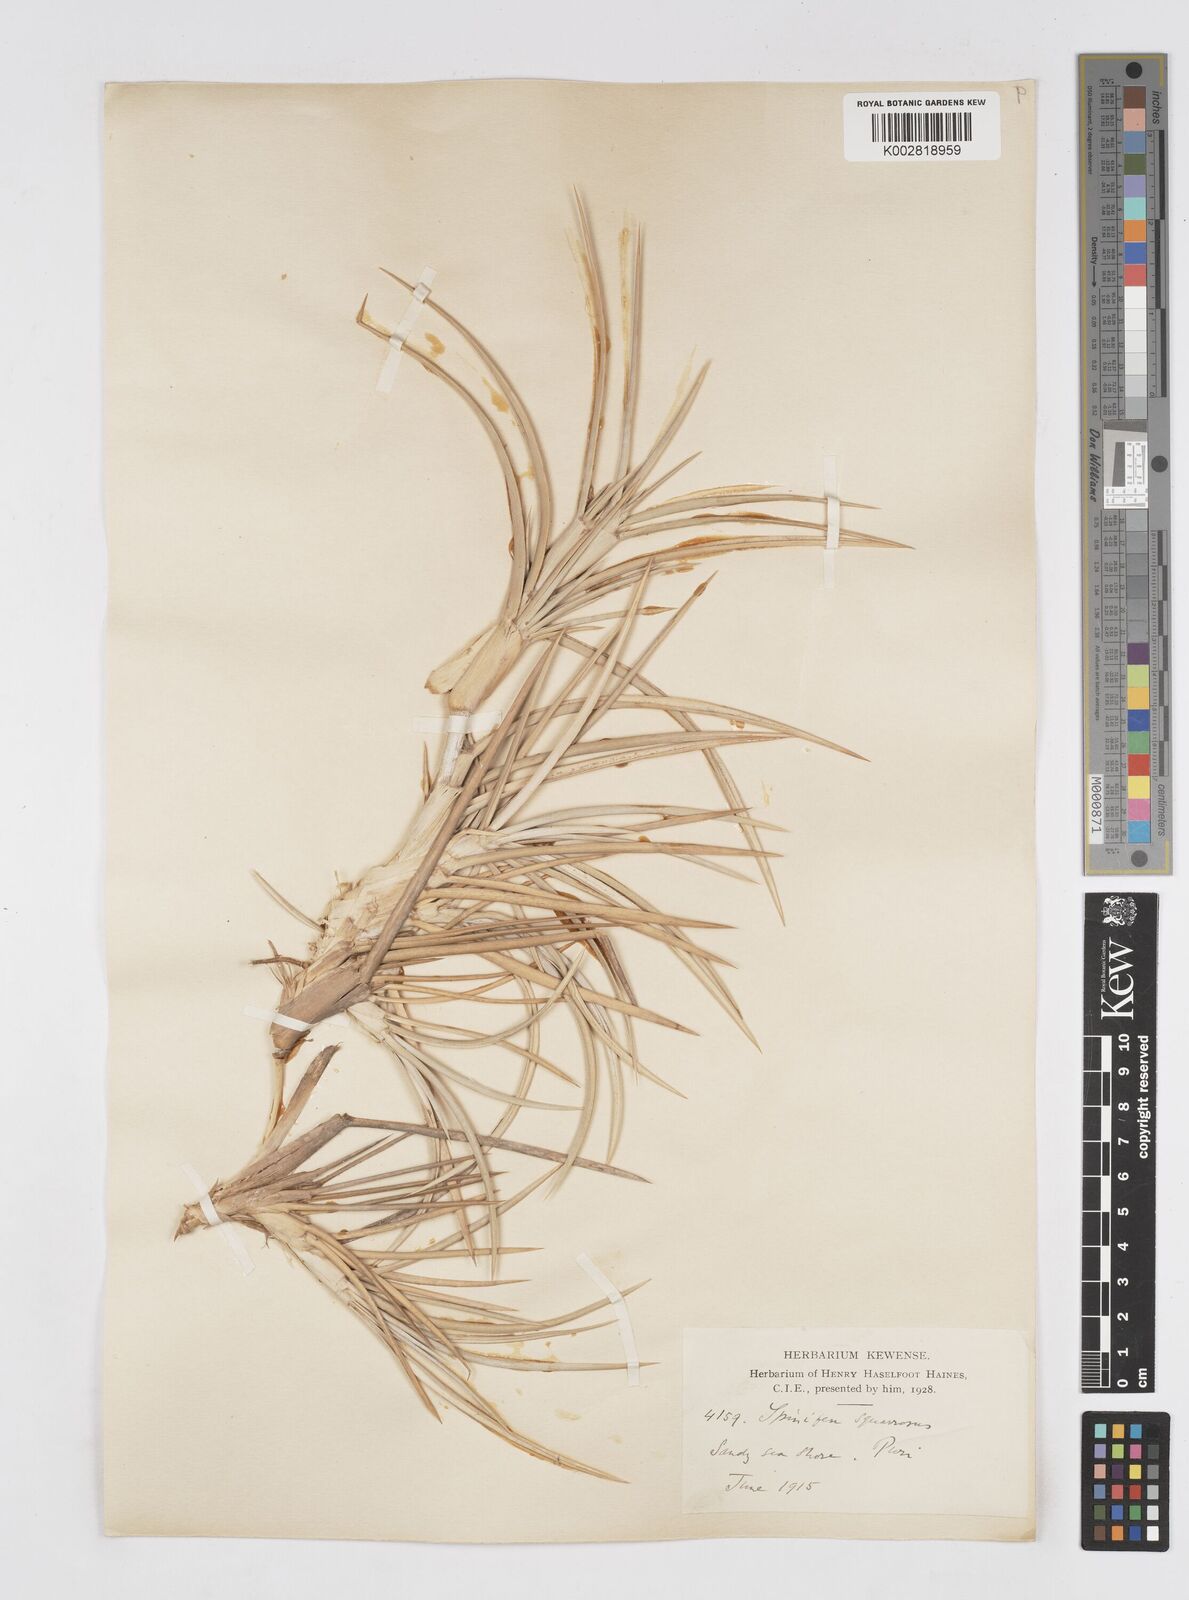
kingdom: Plantae
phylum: Tracheophyta
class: Liliopsida
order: Poales
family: Poaceae
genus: Spinifex
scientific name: Spinifex littoreus
